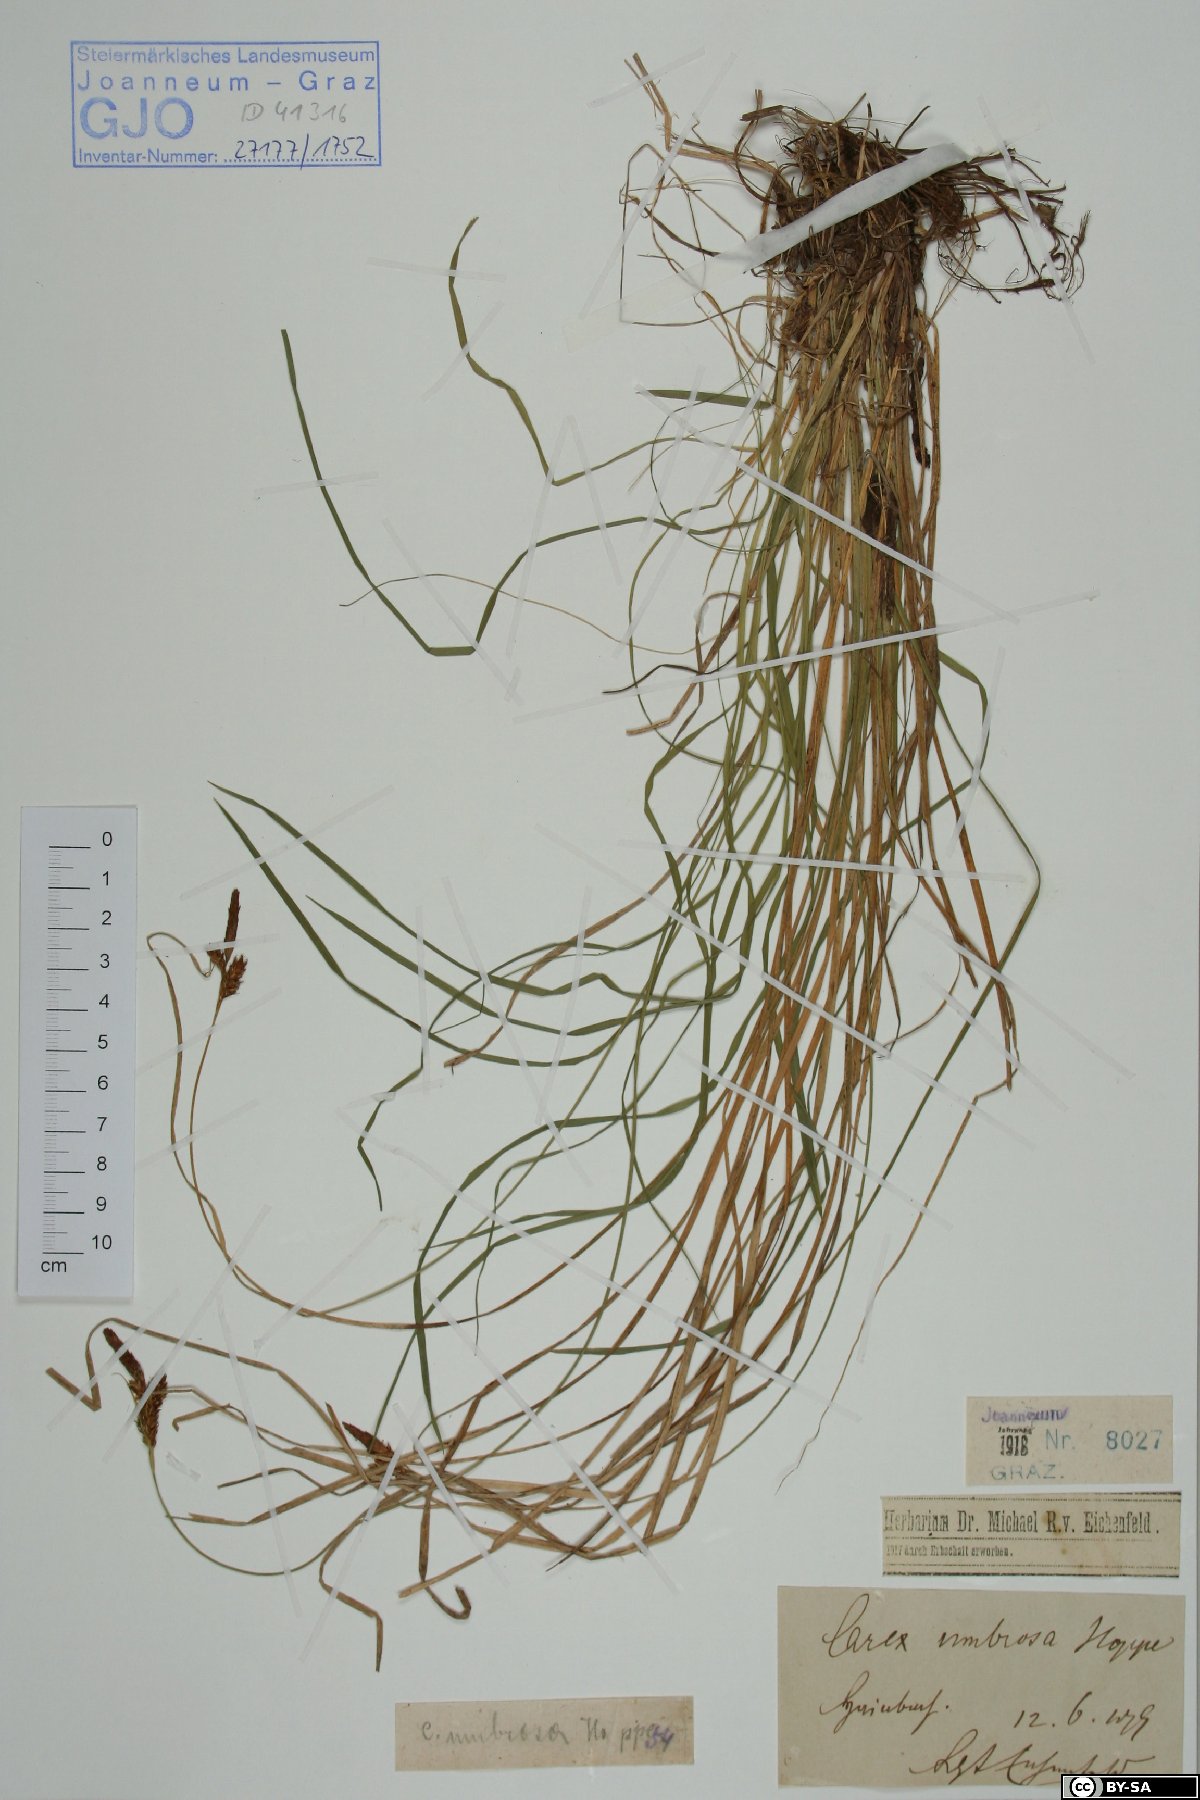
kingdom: Plantae
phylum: Tracheophyta
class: Liliopsida
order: Poales
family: Cyperaceae
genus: Carex
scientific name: Carex umbrosa
